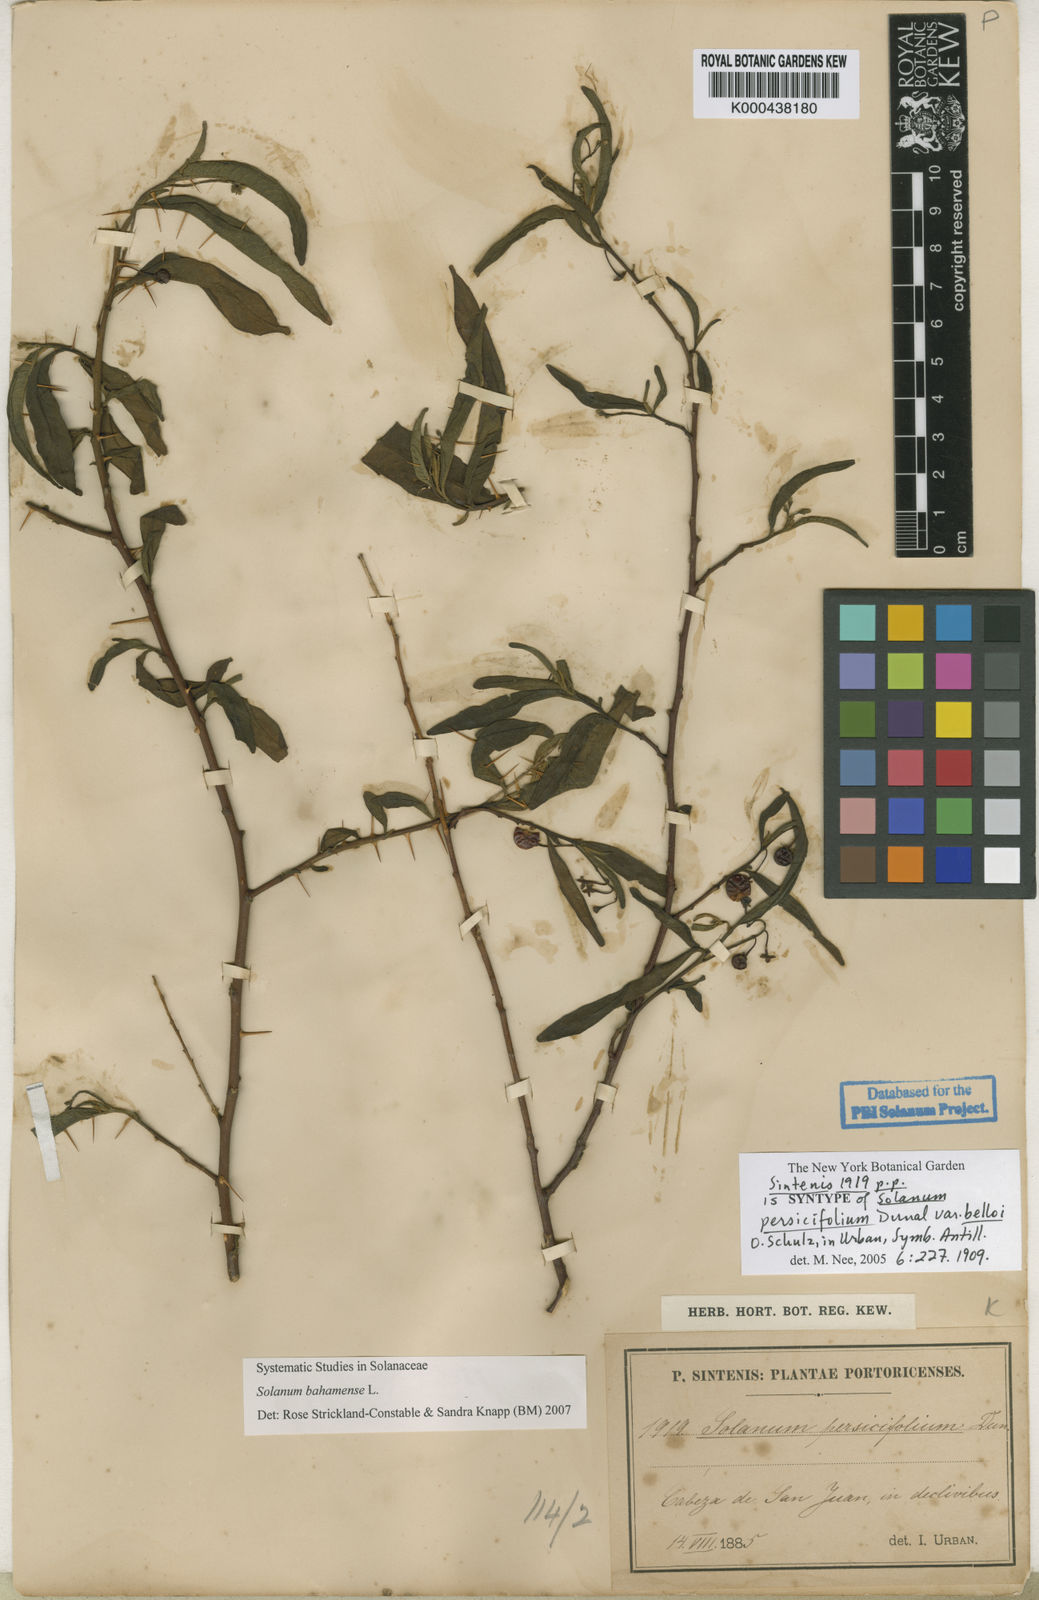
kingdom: Plantae
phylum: Tracheophyta
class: Magnoliopsida
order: Solanales
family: Solanaceae
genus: Solanum
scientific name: Solanum bahamense
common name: Canker-berry
